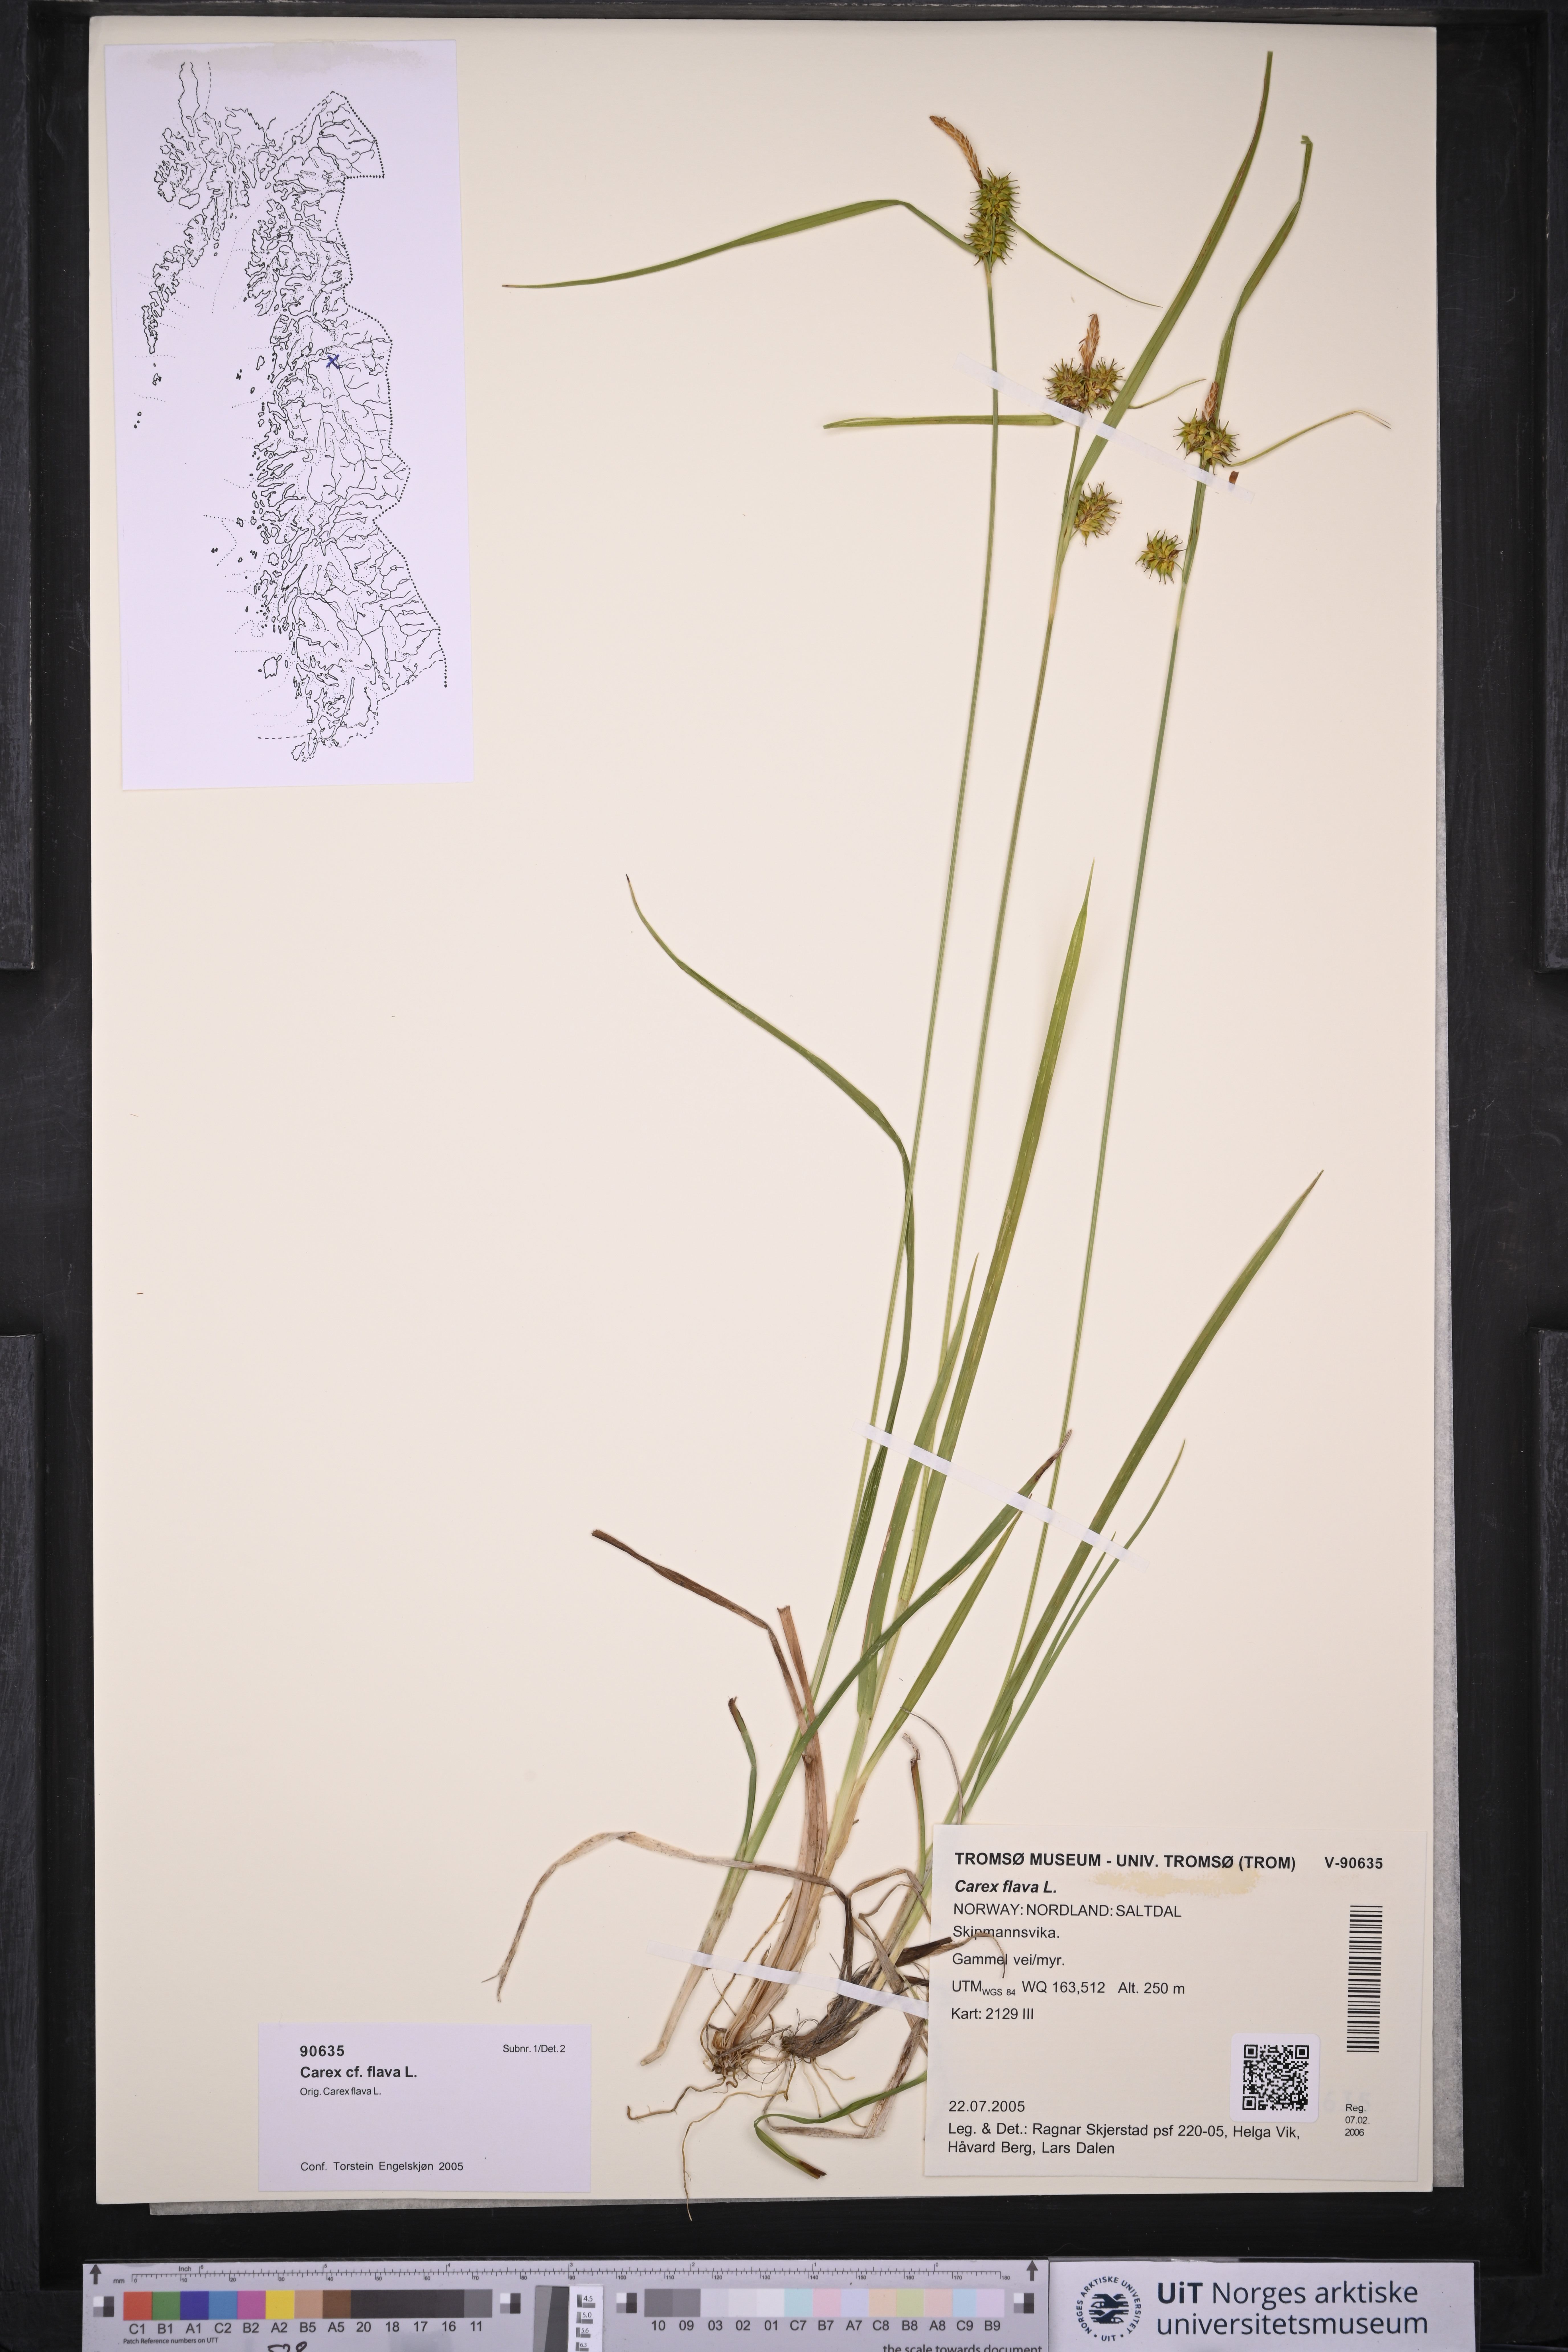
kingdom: Plantae
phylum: Tracheophyta
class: Liliopsida
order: Poales
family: Cyperaceae
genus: Carex
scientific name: Carex flava
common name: Large yellow-sedge
